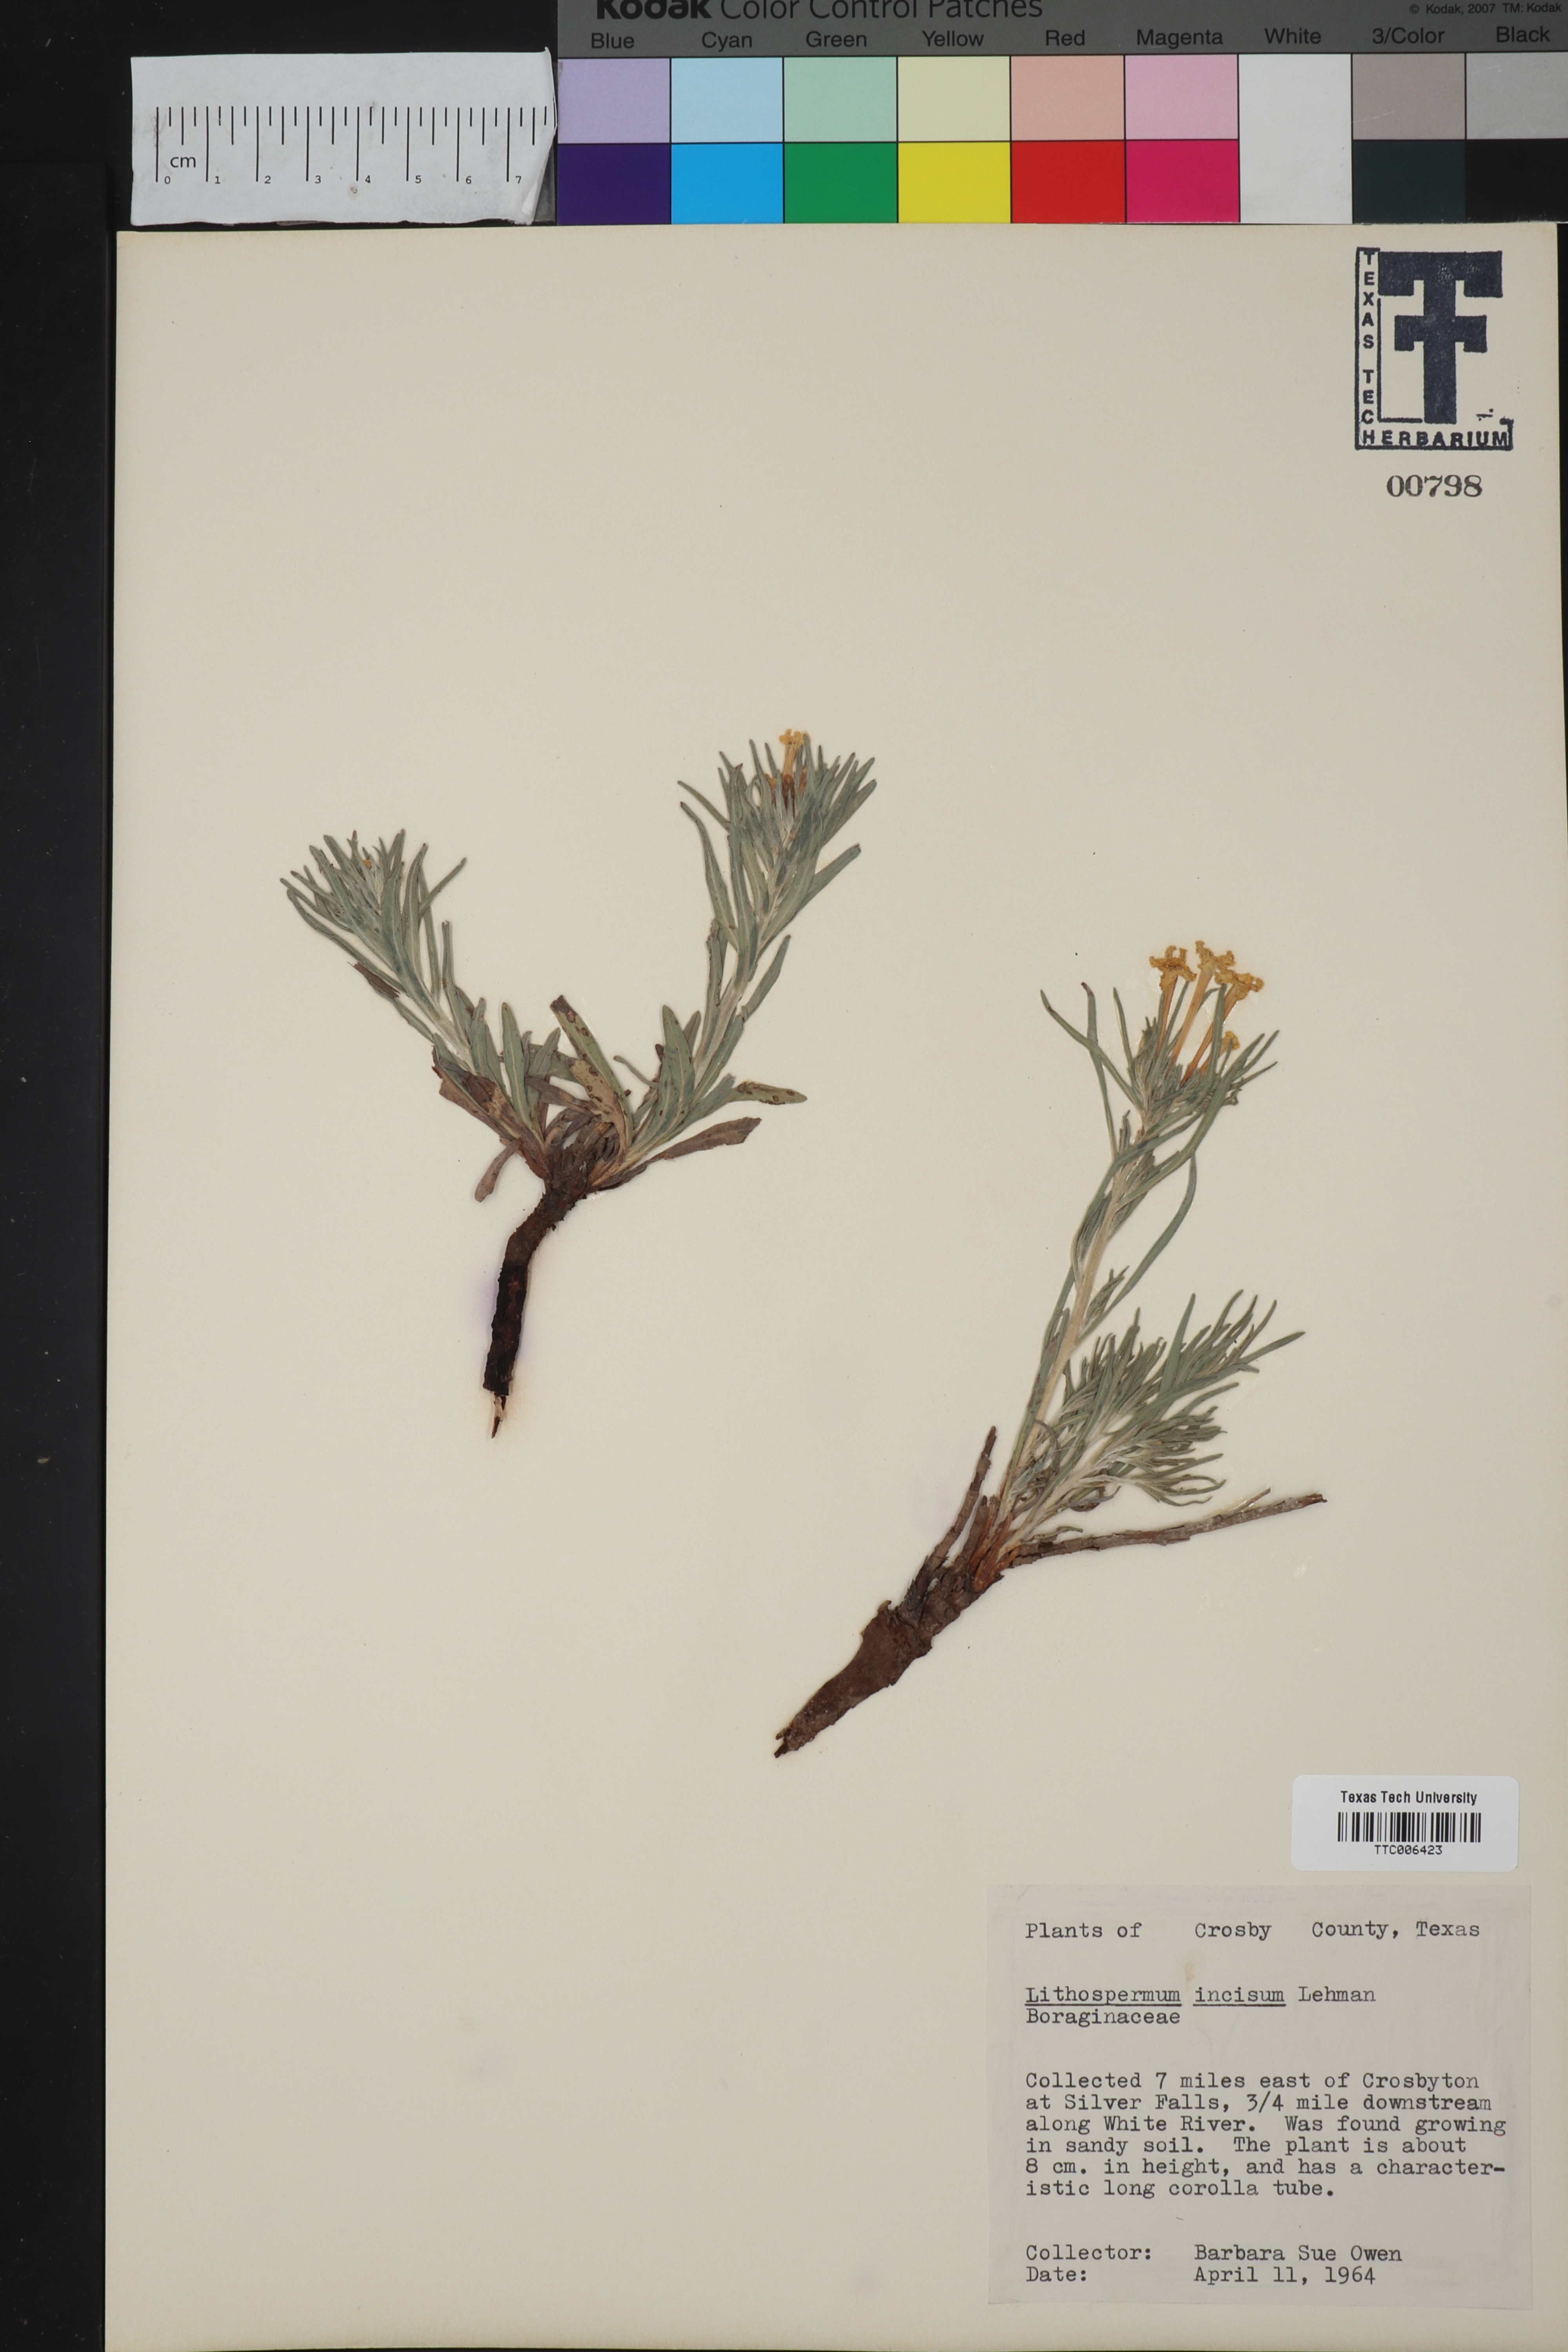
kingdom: Plantae
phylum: Tracheophyta
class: Magnoliopsida
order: Boraginales
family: Boraginaceae
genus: Lithospermum
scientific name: Lithospermum incisum
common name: Fringed gromwell
